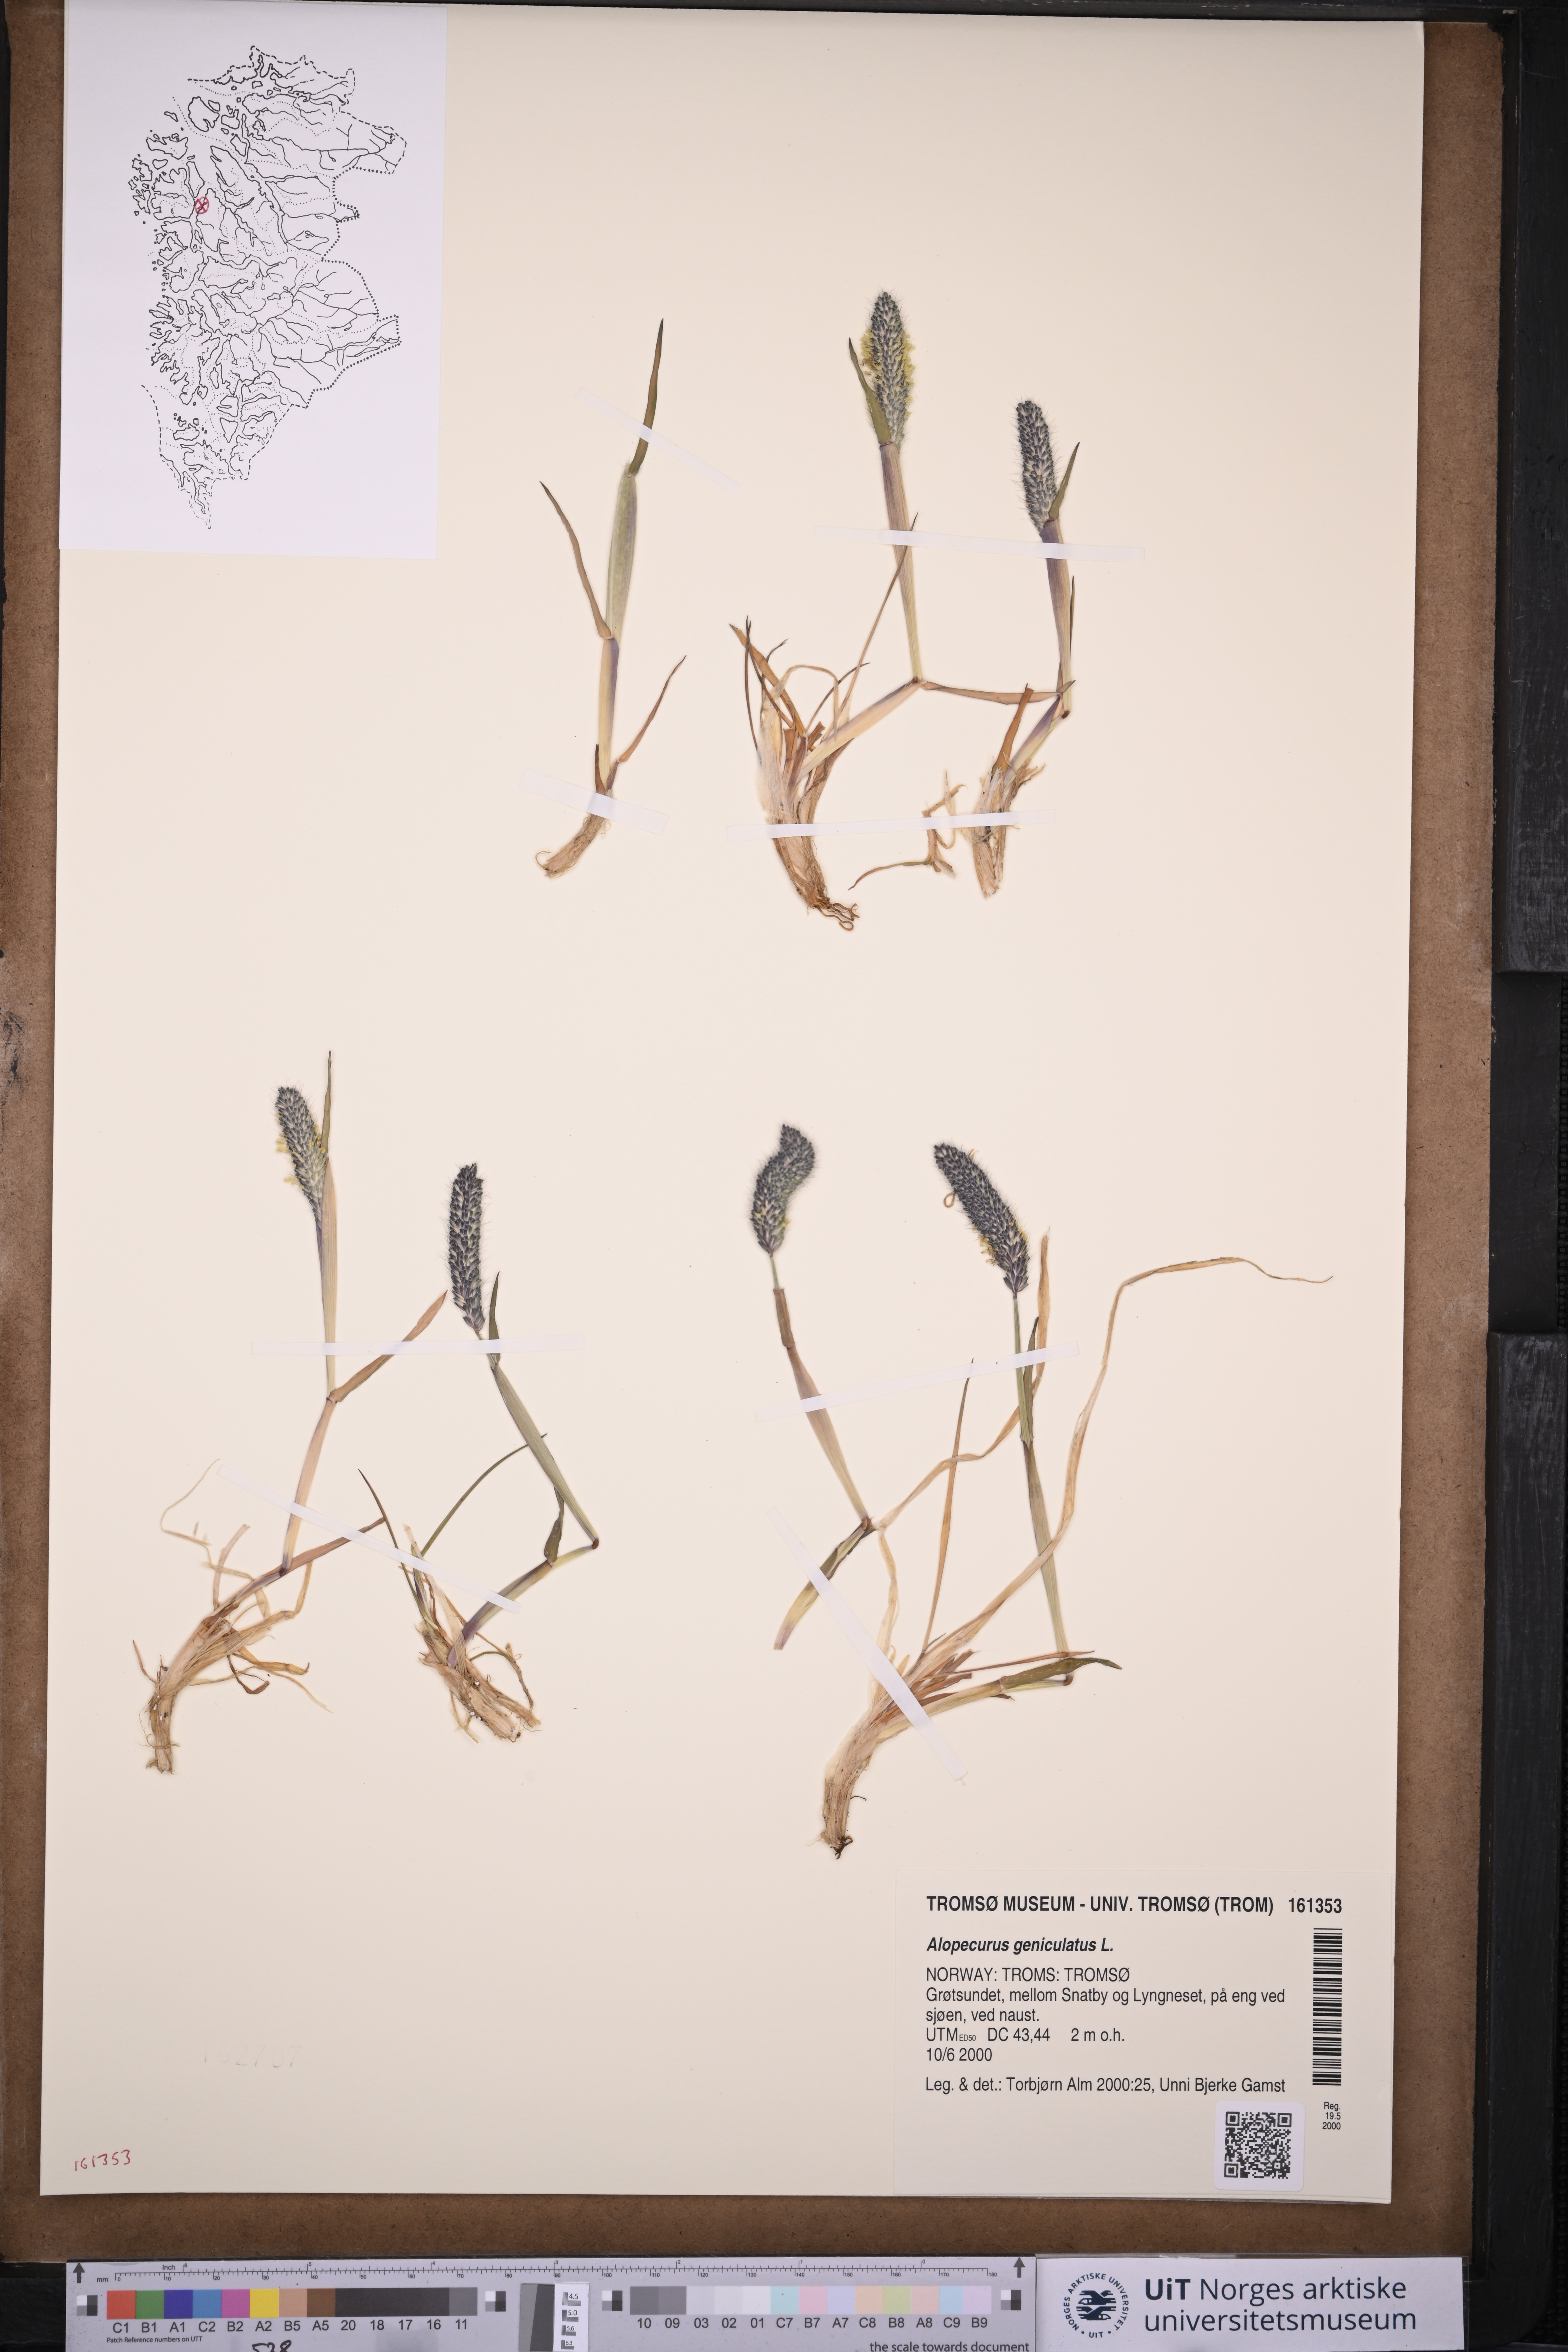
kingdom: Plantae
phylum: Tracheophyta
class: Liliopsida
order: Poales
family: Poaceae
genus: Alopecurus
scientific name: Alopecurus geniculatus
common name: Water foxtail
